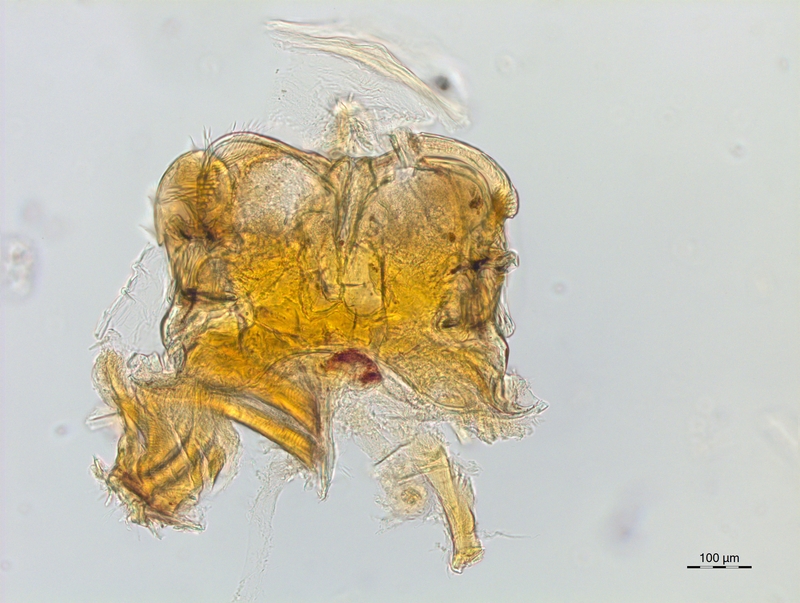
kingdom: Animalia
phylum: Arthropoda
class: Diplopoda
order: Chordeumatida
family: Craspedosomatidae
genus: Craspedosoma
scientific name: Craspedosoma taurinorum
